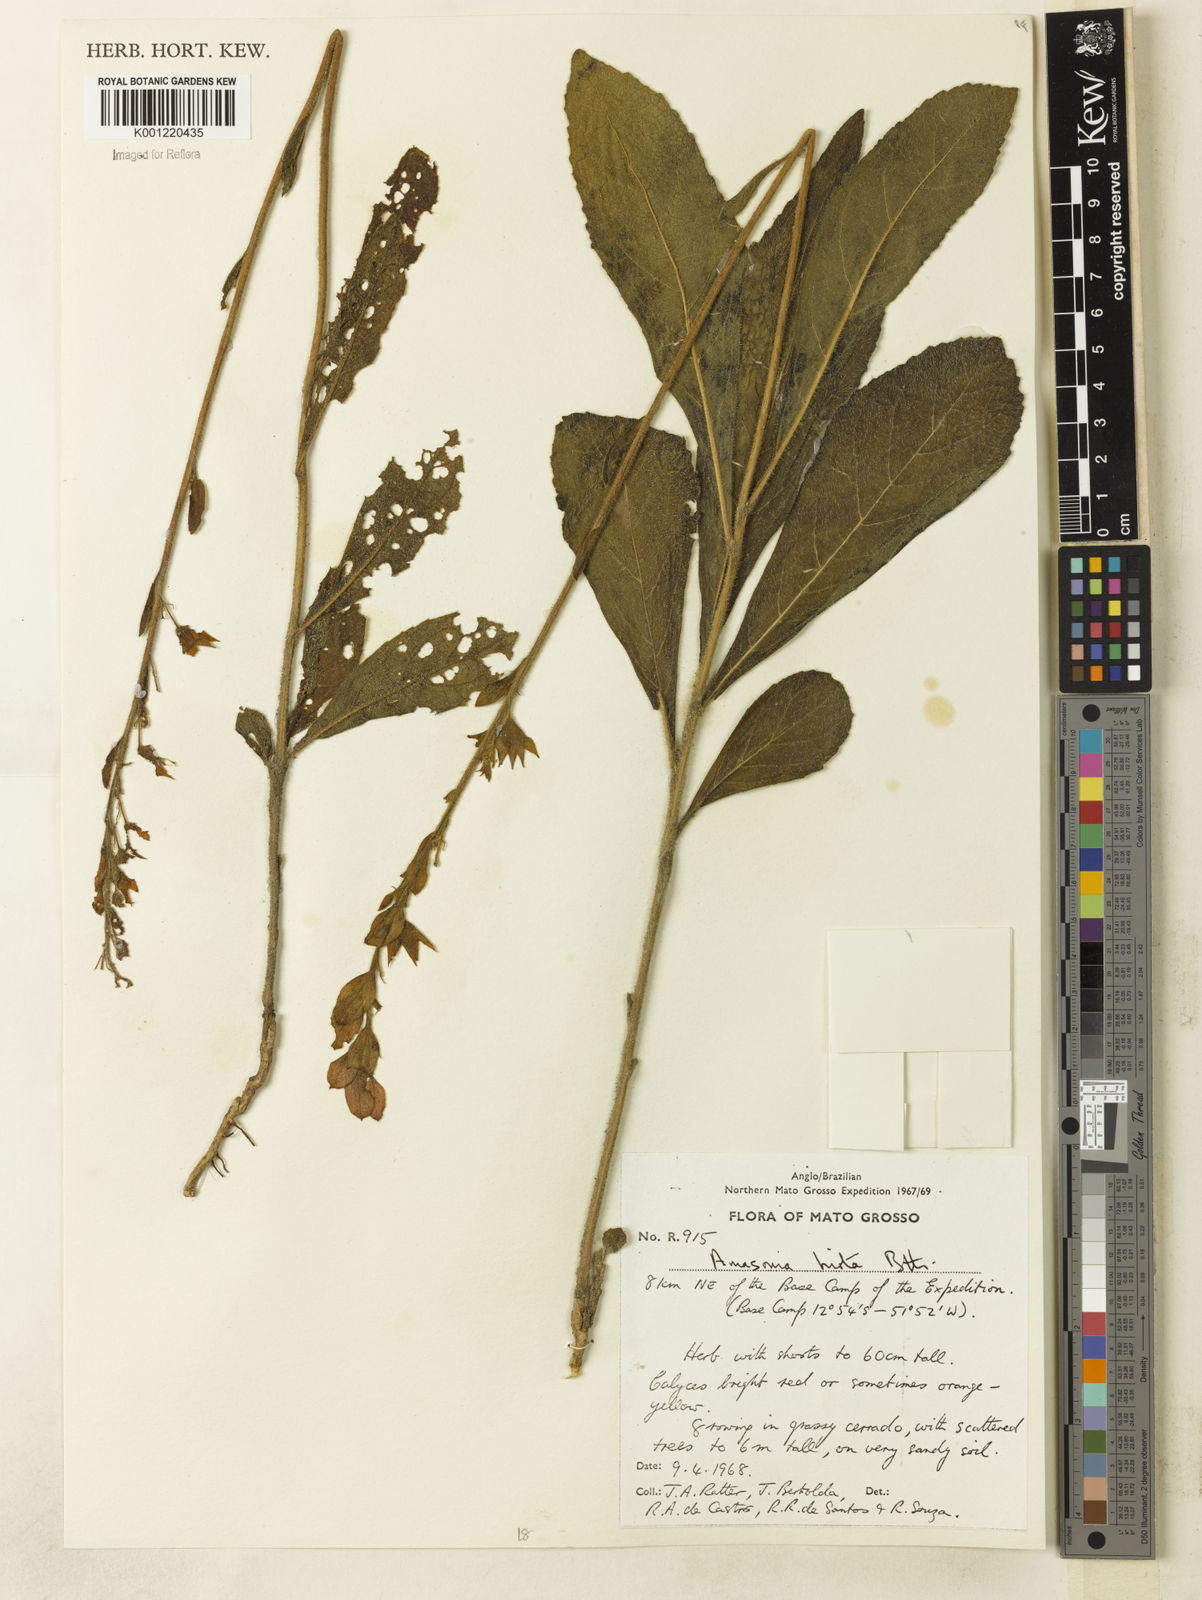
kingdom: Plantae
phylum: Tracheophyta
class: Magnoliopsida
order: Lamiales
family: Lamiaceae
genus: Amasonia
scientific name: Amasonia hirta
